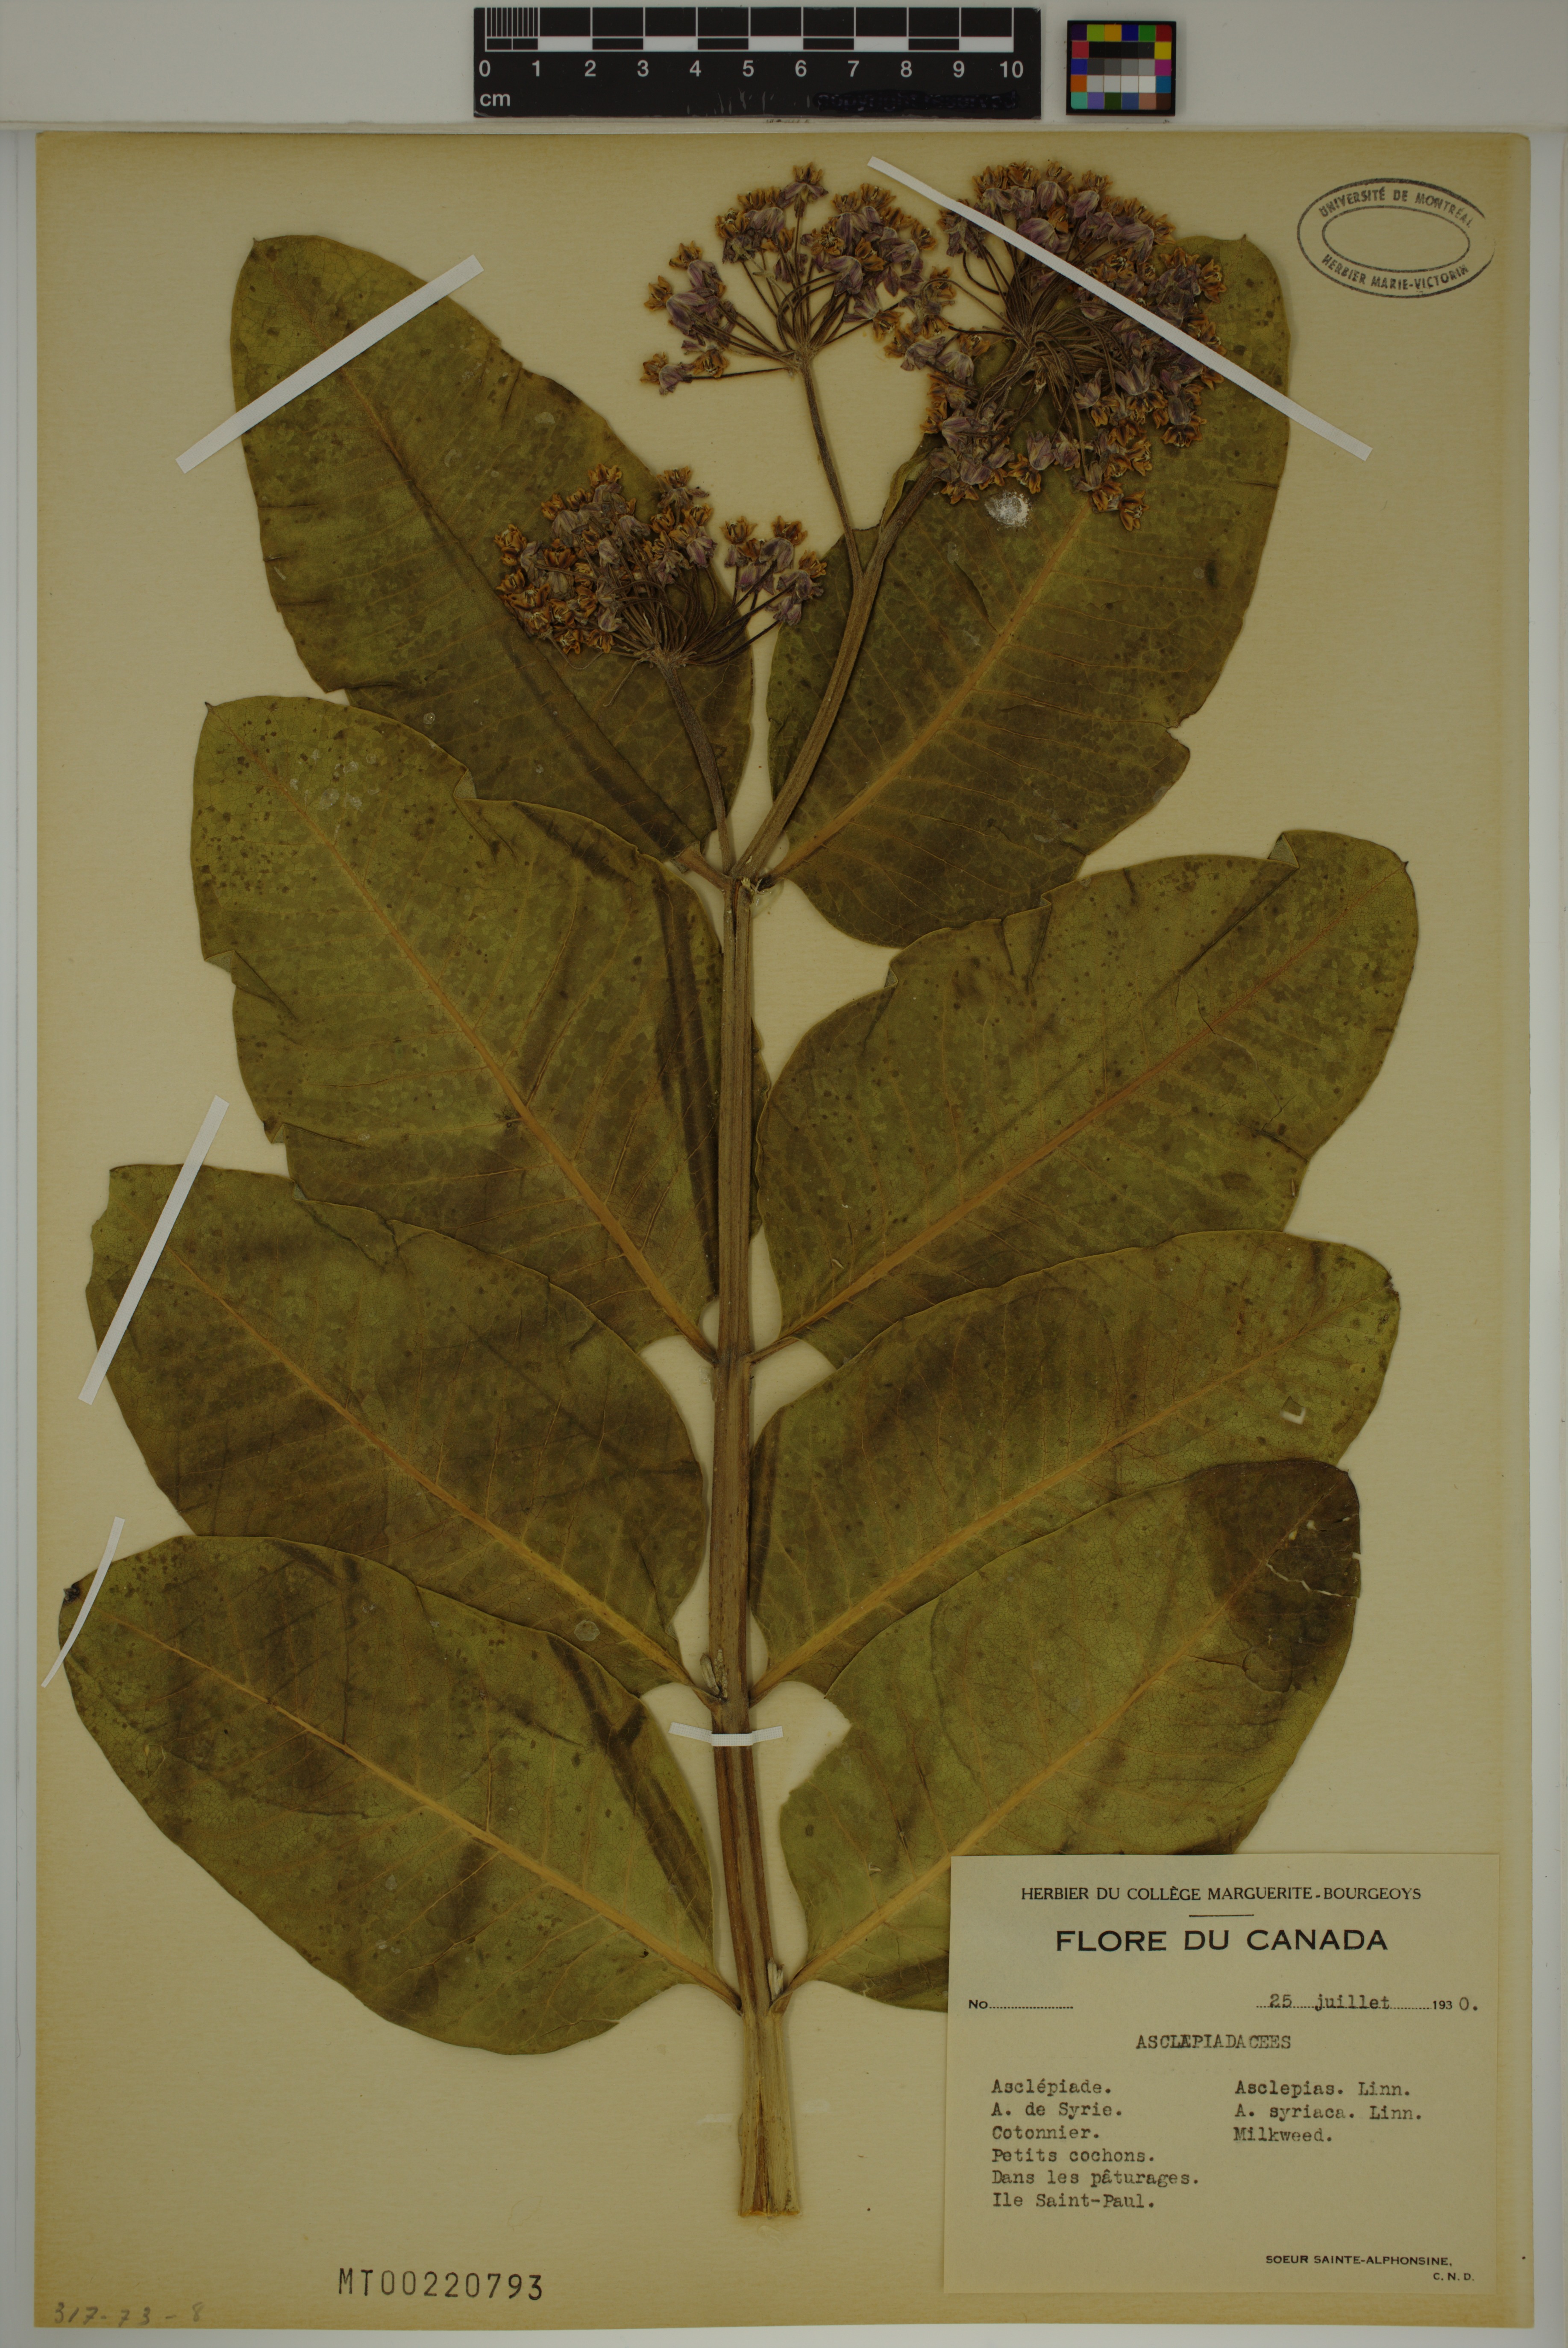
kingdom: Plantae
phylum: Tracheophyta
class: Magnoliopsida
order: Gentianales
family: Apocynaceae
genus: Asclepias
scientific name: Asclepias syriaca
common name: Common milkweed
